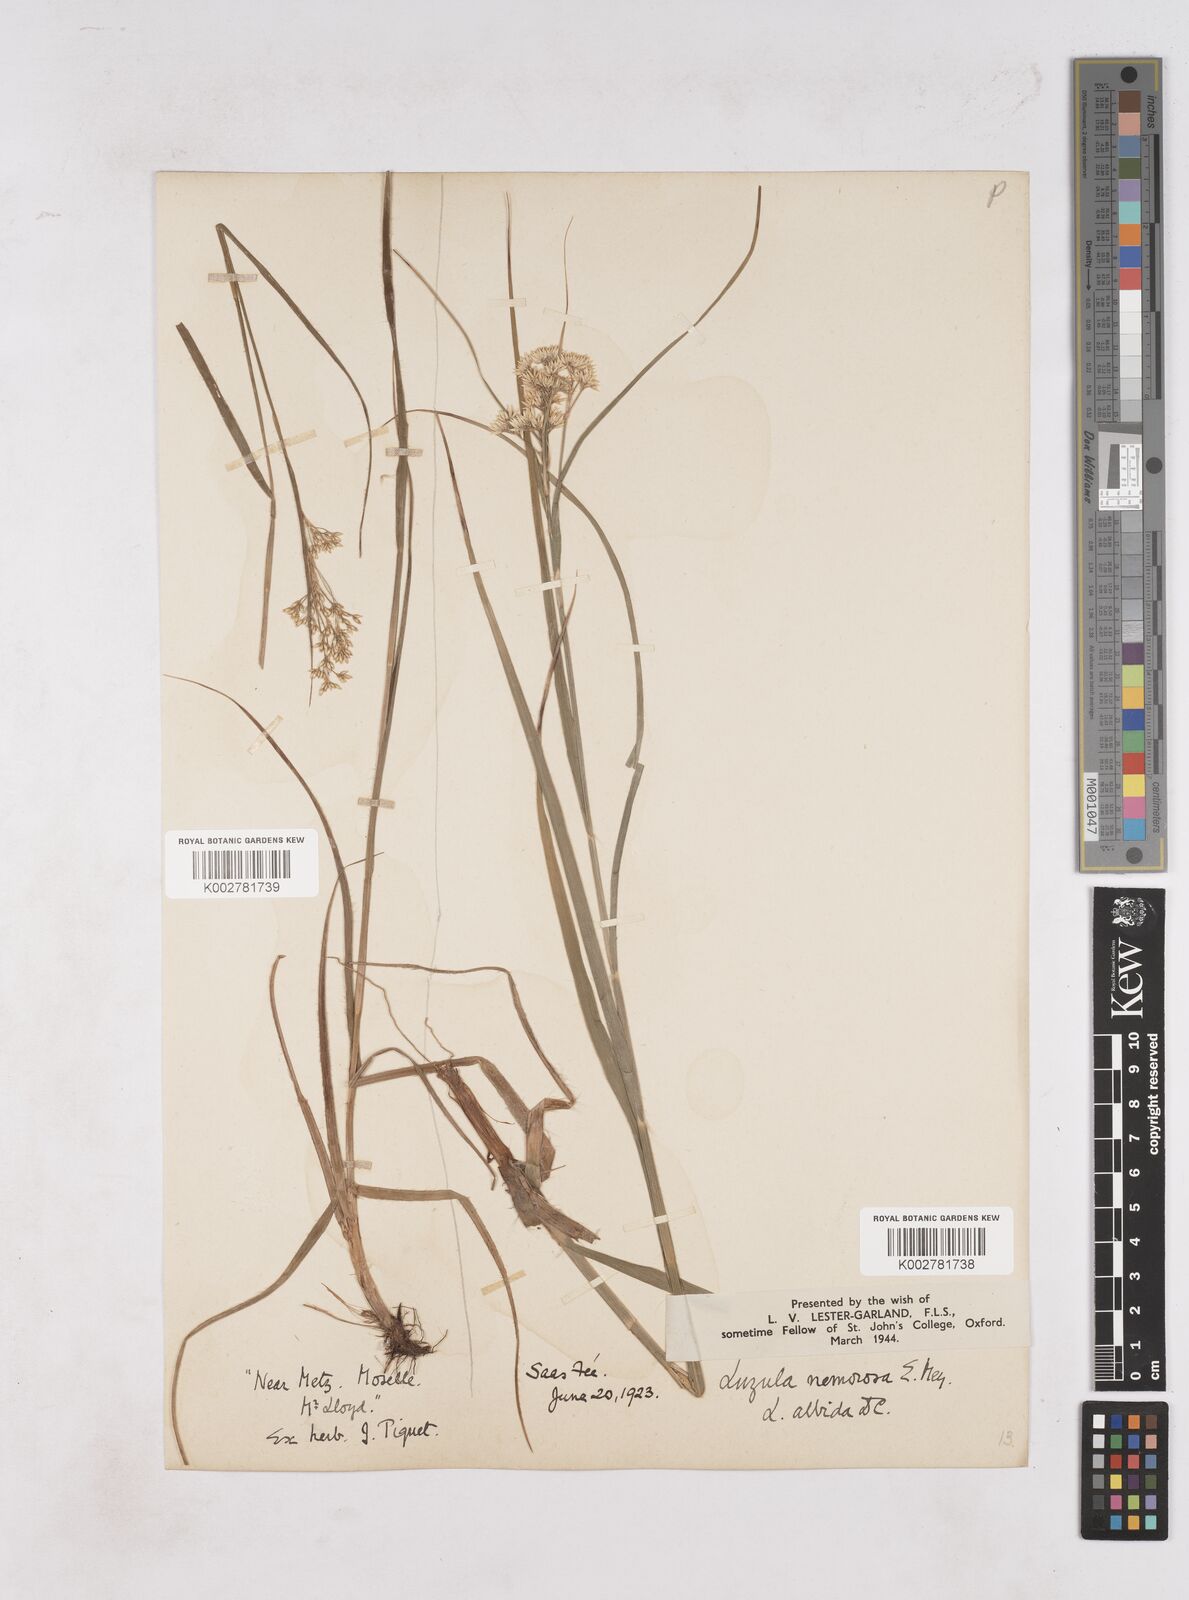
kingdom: Plantae
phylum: Tracheophyta
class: Liliopsida
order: Poales
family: Juncaceae
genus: Luzula
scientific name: Luzula luzuloides
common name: White wood-rush
